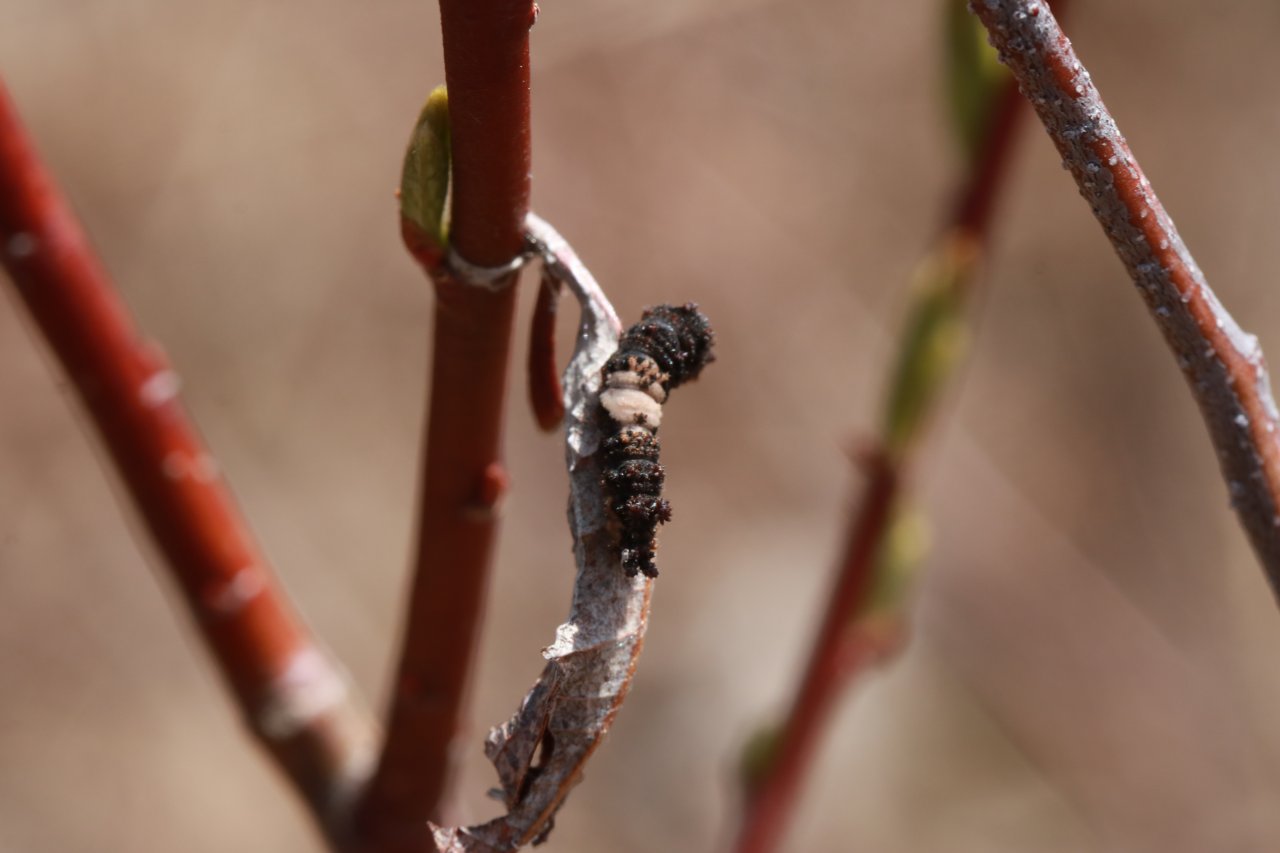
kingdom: Animalia
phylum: Arthropoda
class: Insecta
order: Lepidoptera
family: Nymphalidae
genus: Limenitis
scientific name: Limenitis archippus
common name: Viceroy
